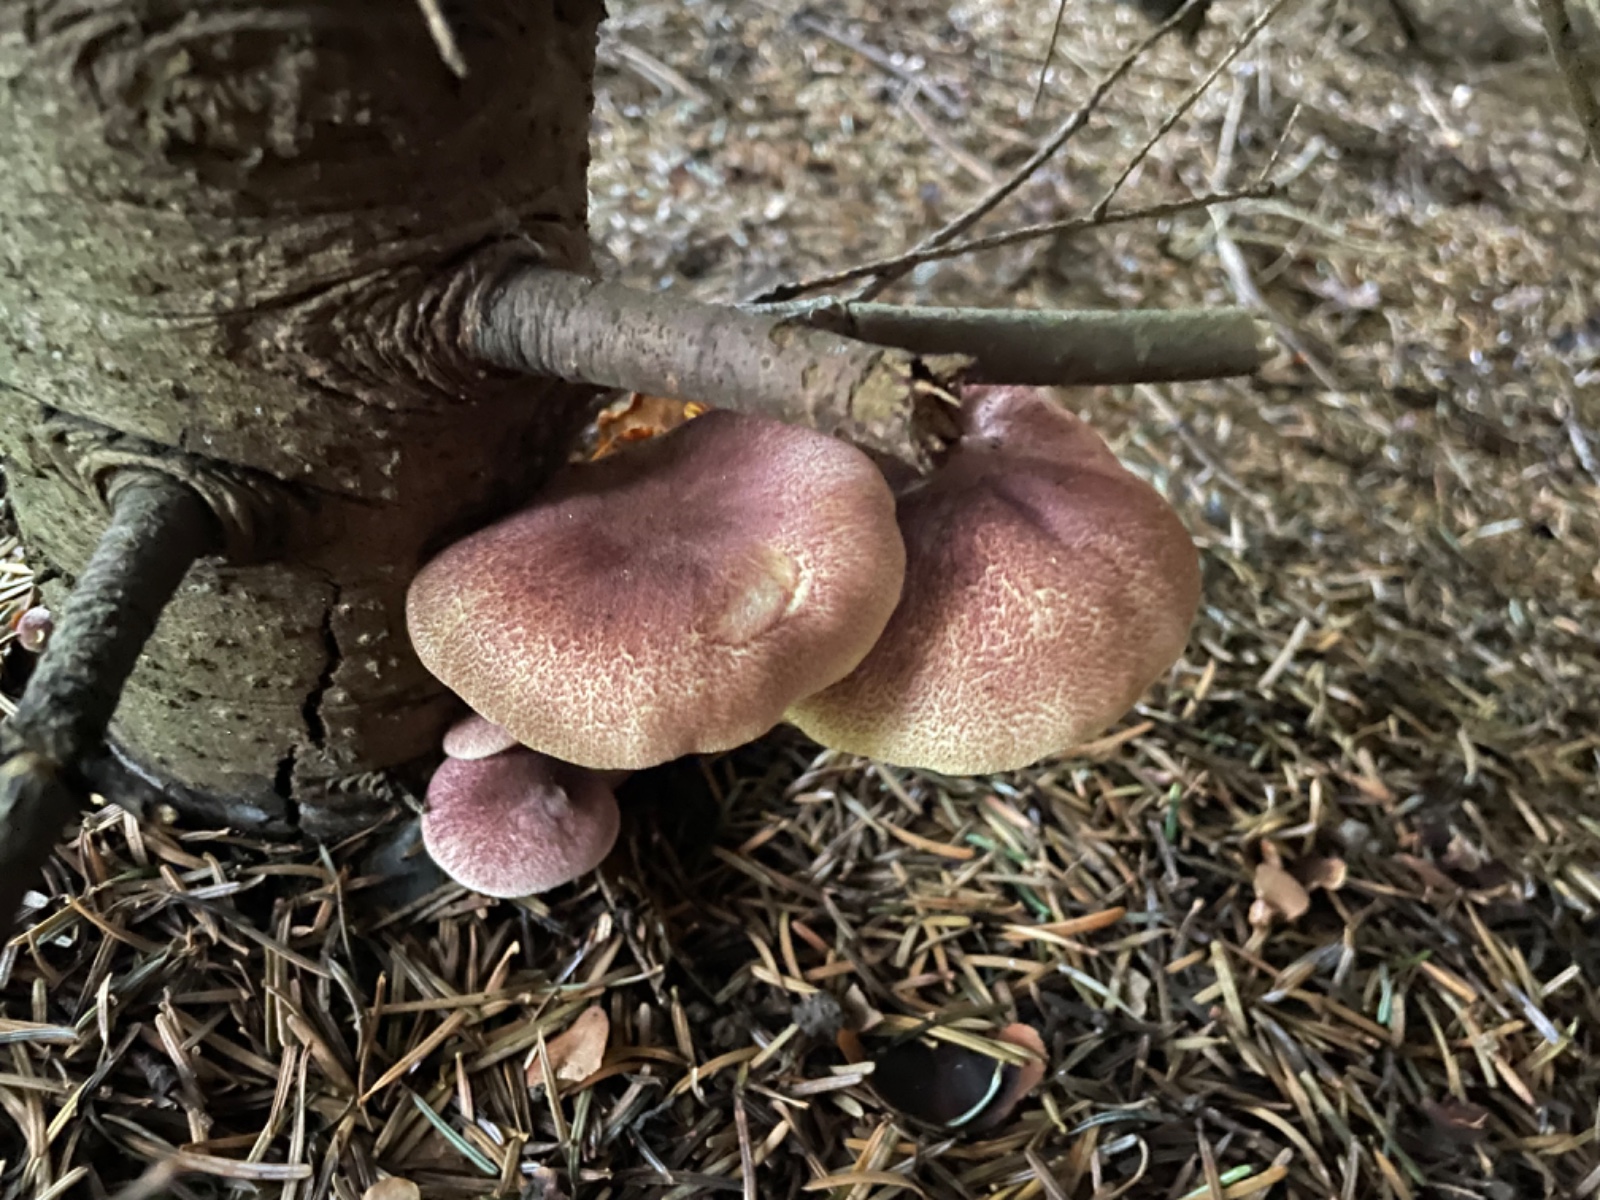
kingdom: Fungi
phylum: Basidiomycota
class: Agaricomycetes
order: Agaricales
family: Tricholomataceae
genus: Tricholomopsis
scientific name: Tricholomopsis rutilans
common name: purpur-væbnerhat
